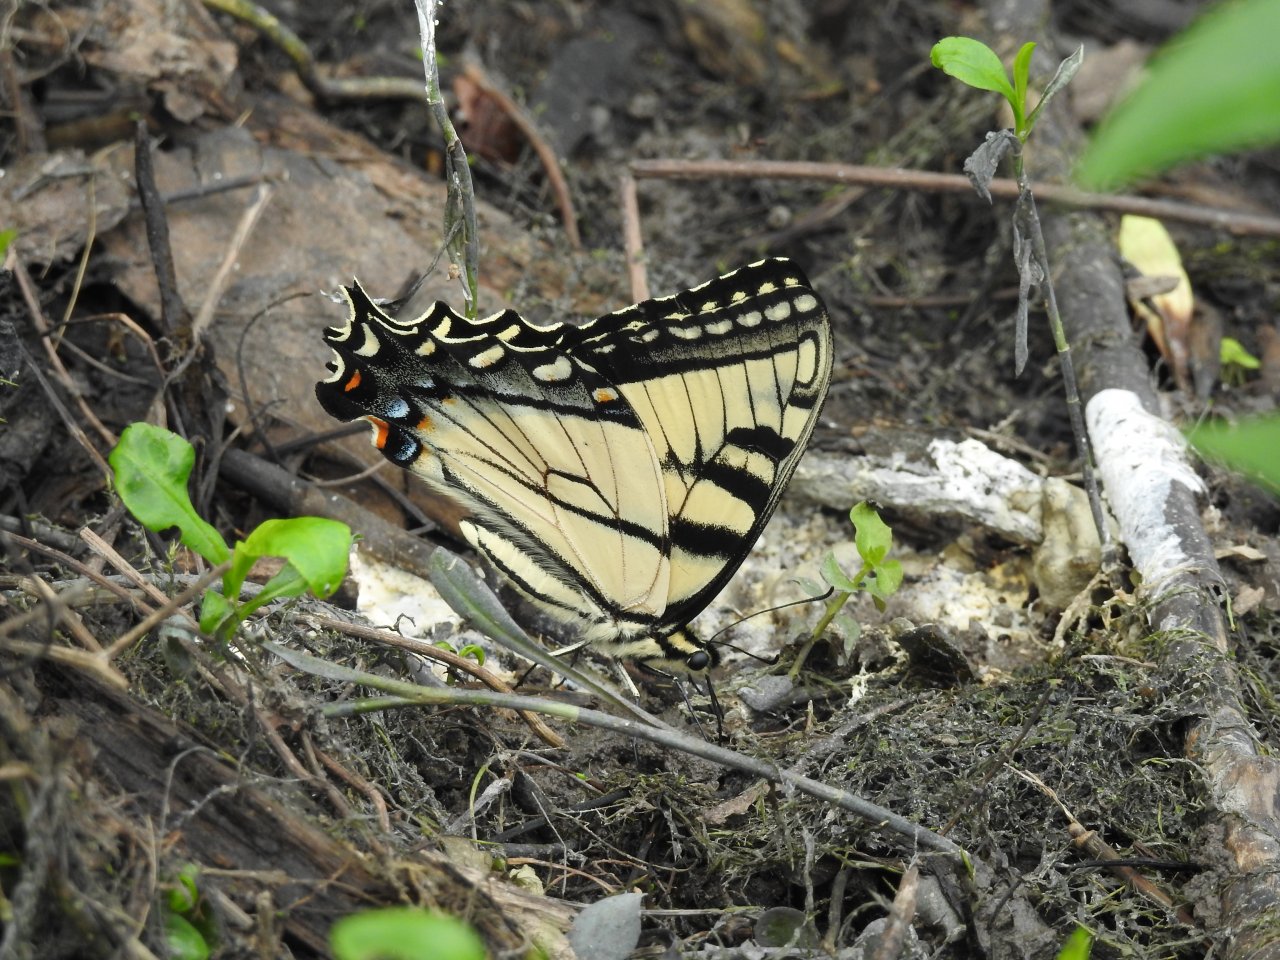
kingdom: Animalia
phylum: Arthropoda
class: Insecta
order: Lepidoptera
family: Papilionidae
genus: Pterourus
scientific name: Pterourus glaucus
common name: Eastern Tiger Swallowtail
